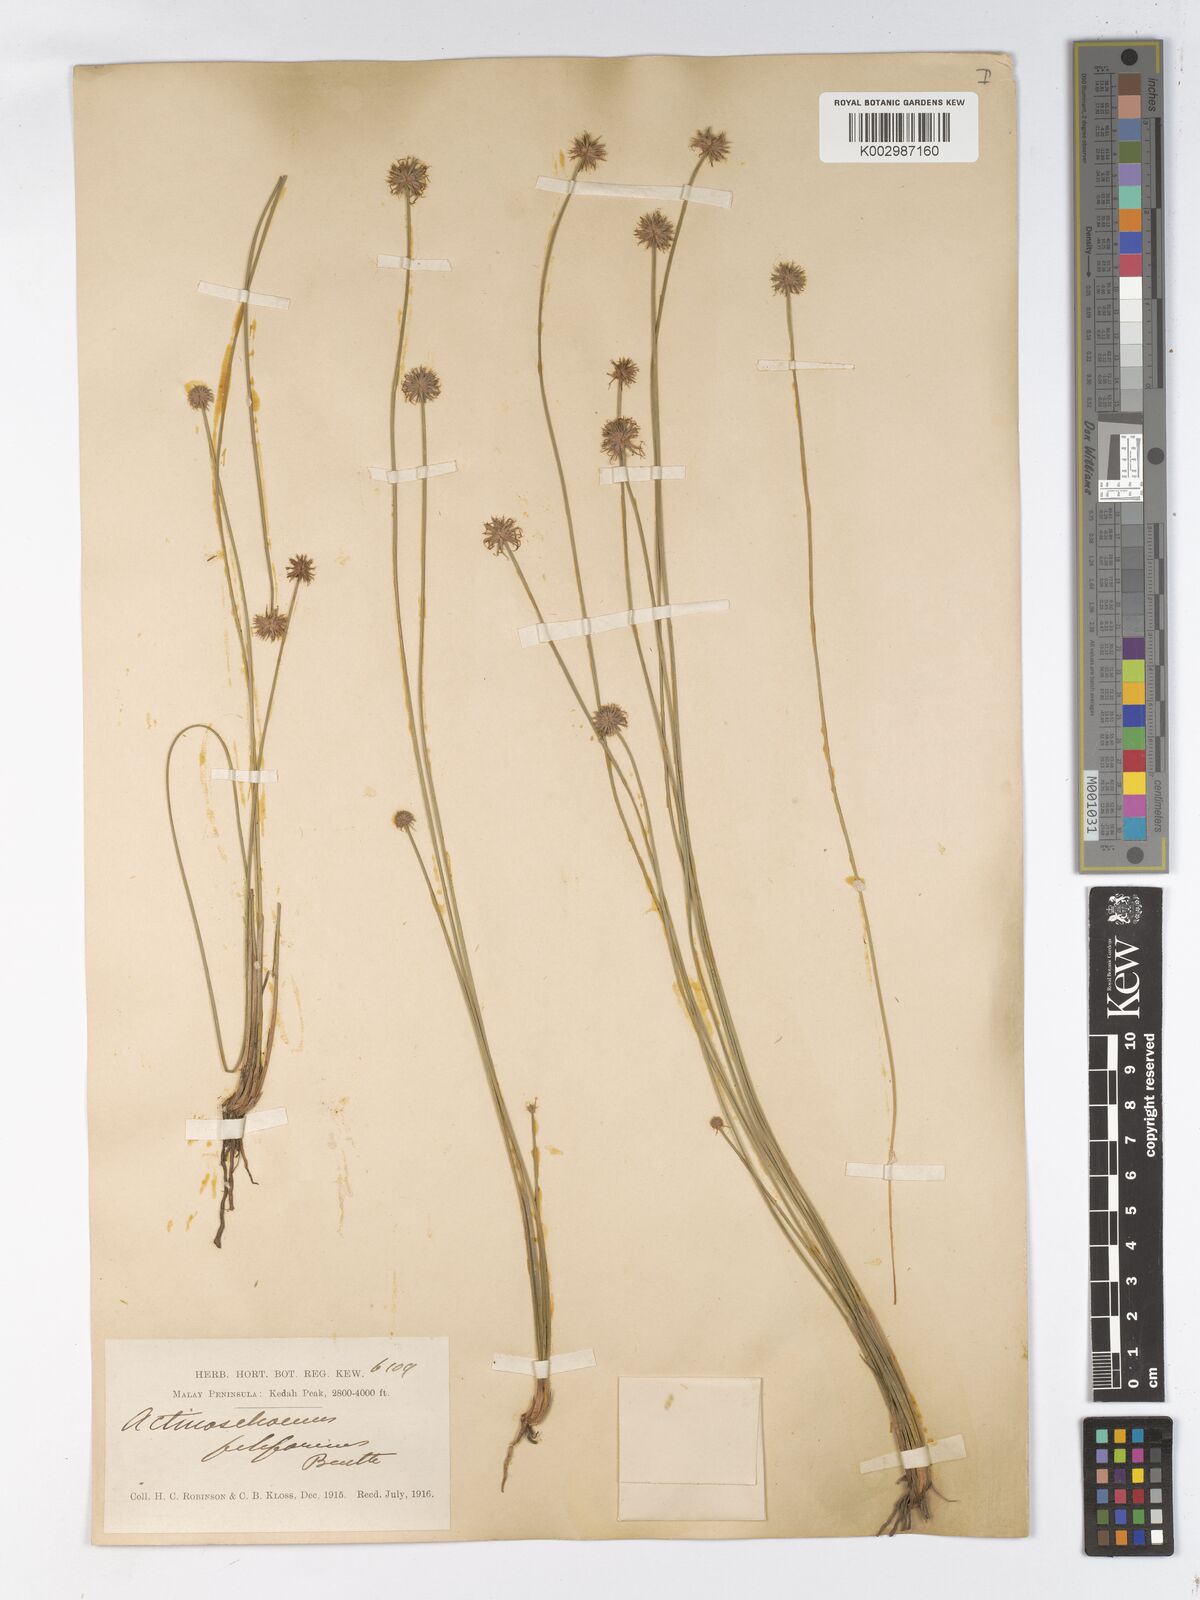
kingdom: Plantae
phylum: Tracheophyta
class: Liliopsida
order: Poales
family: Cyperaceae
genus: Actinoschoenus
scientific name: Actinoschoenus aphyllus
